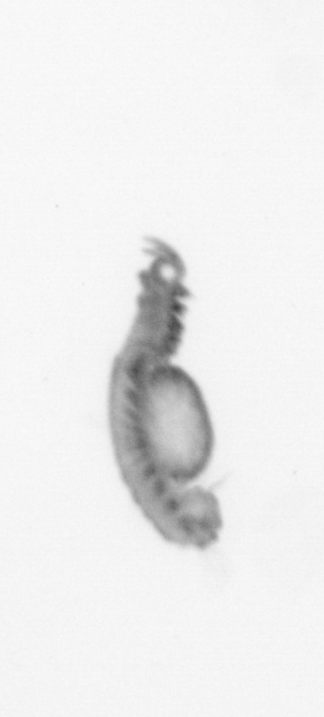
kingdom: Animalia
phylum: Annelida
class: Polychaeta
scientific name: Polychaeta
